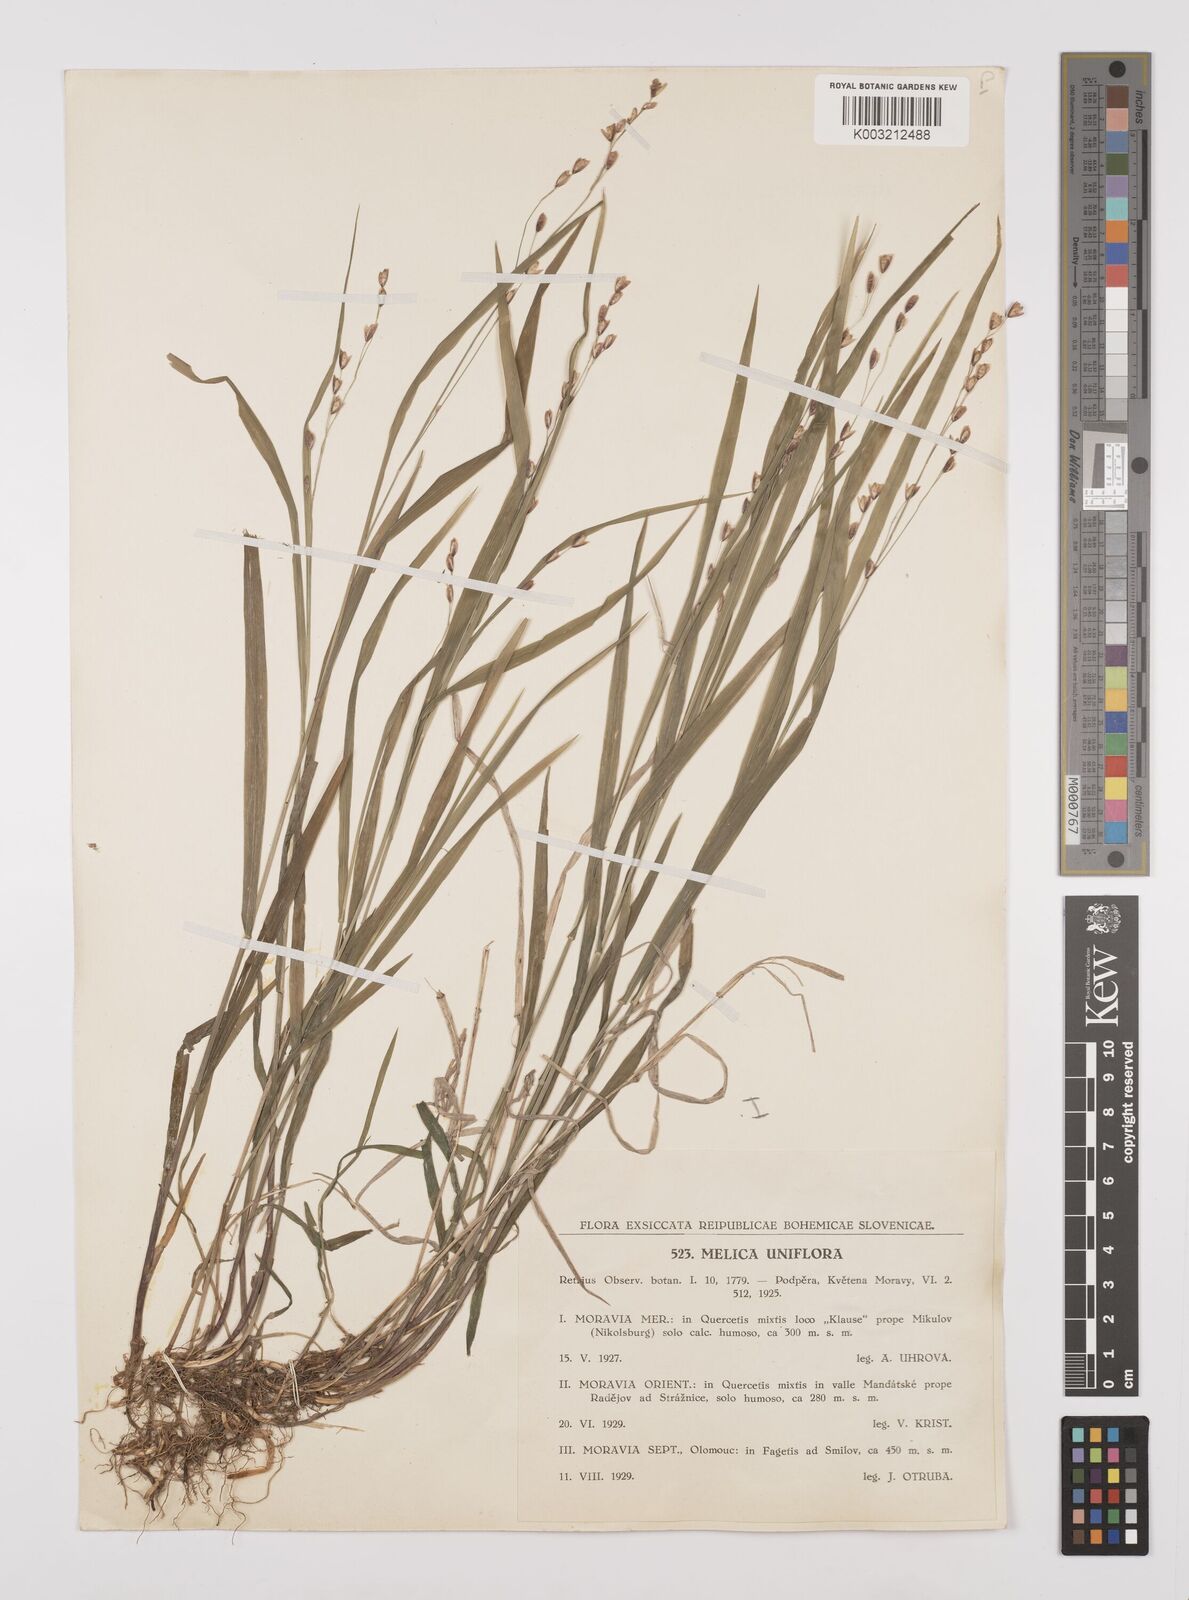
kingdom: Plantae
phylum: Tracheophyta
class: Liliopsida
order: Poales
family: Poaceae
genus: Melica
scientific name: Melica uniflora
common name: Wood melick
